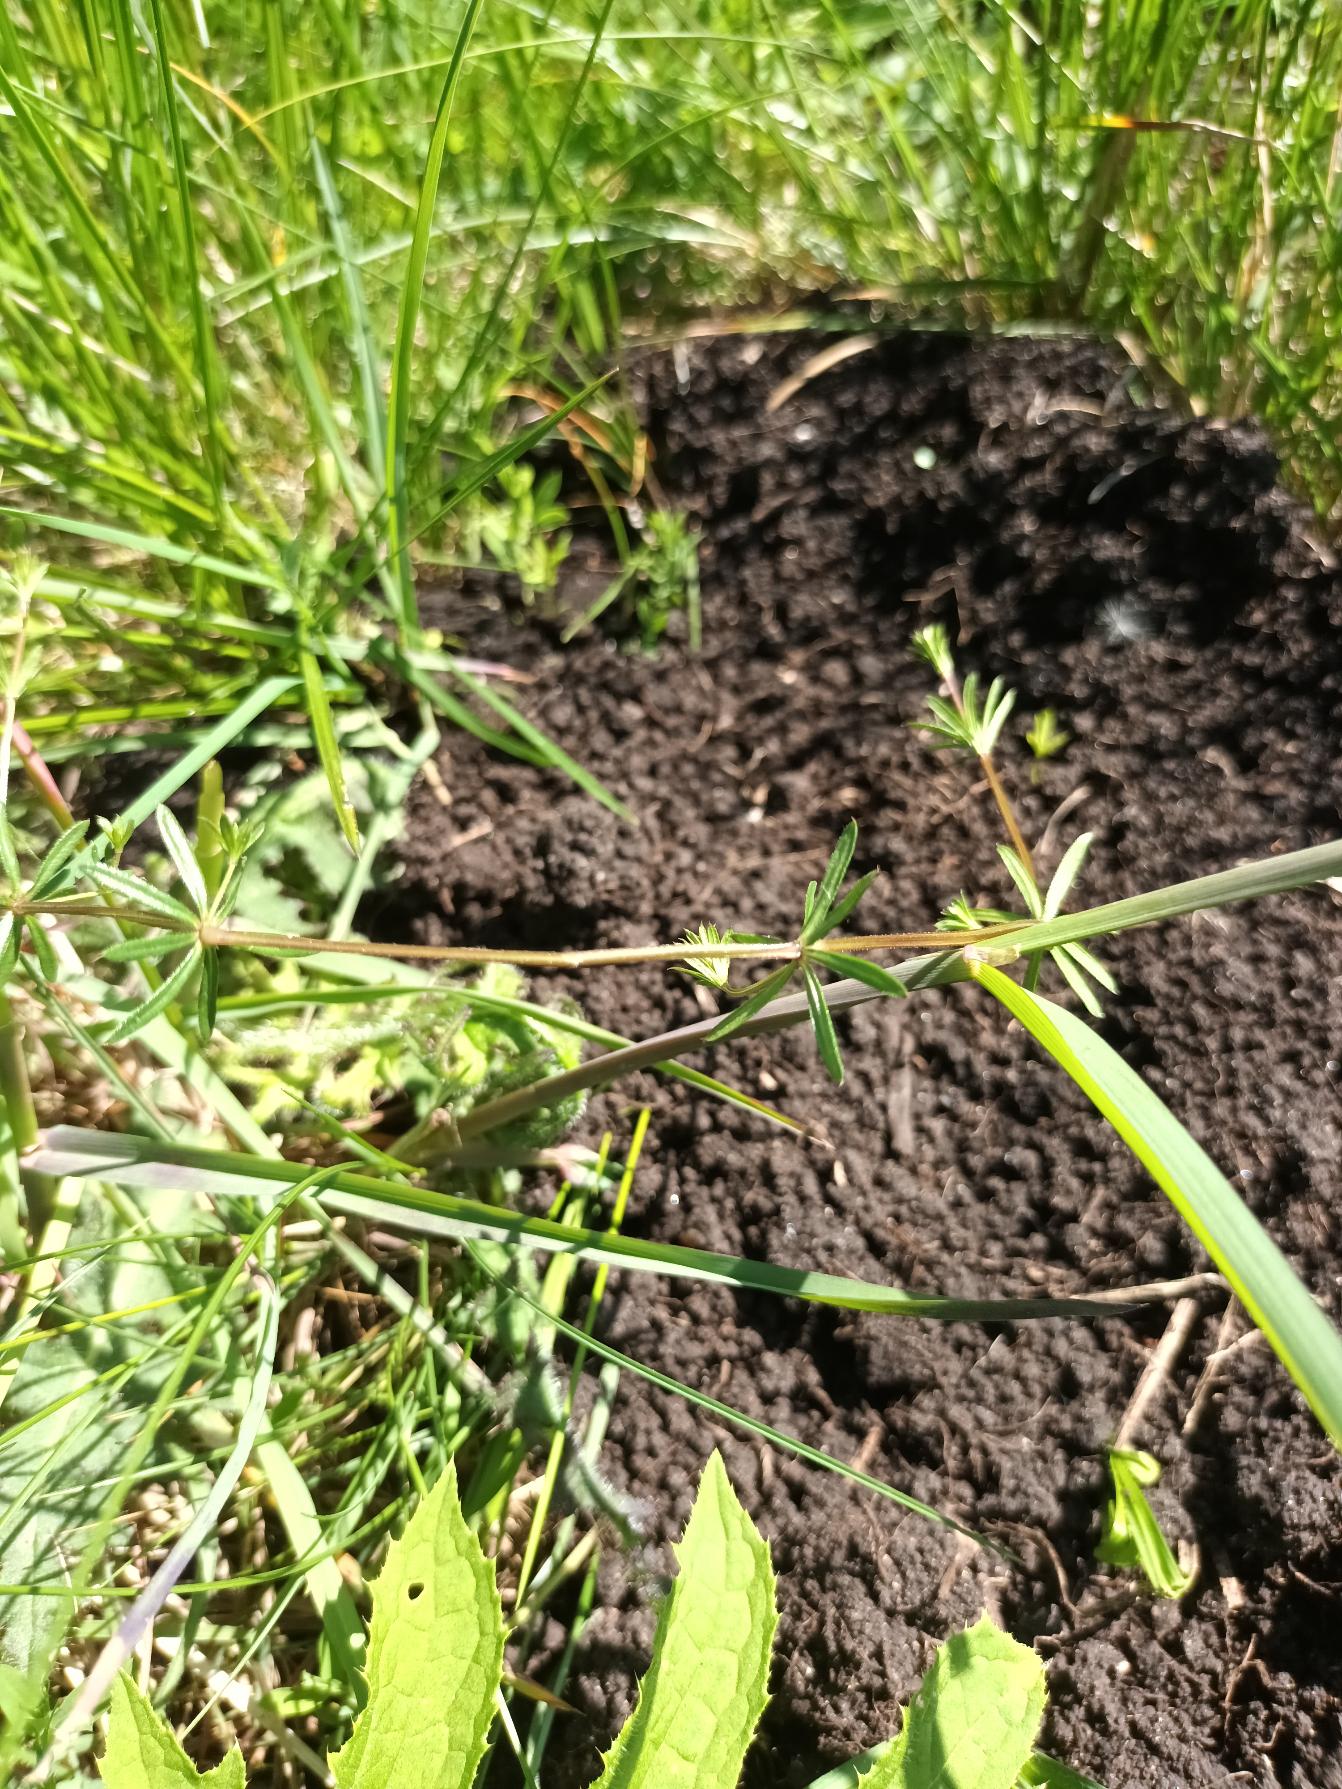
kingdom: Plantae
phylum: Tracheophyta
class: Magnoliopsida
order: Gentianales
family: Rubiaceae
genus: Galium
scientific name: Galium uliginosum
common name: Sump-snerre
